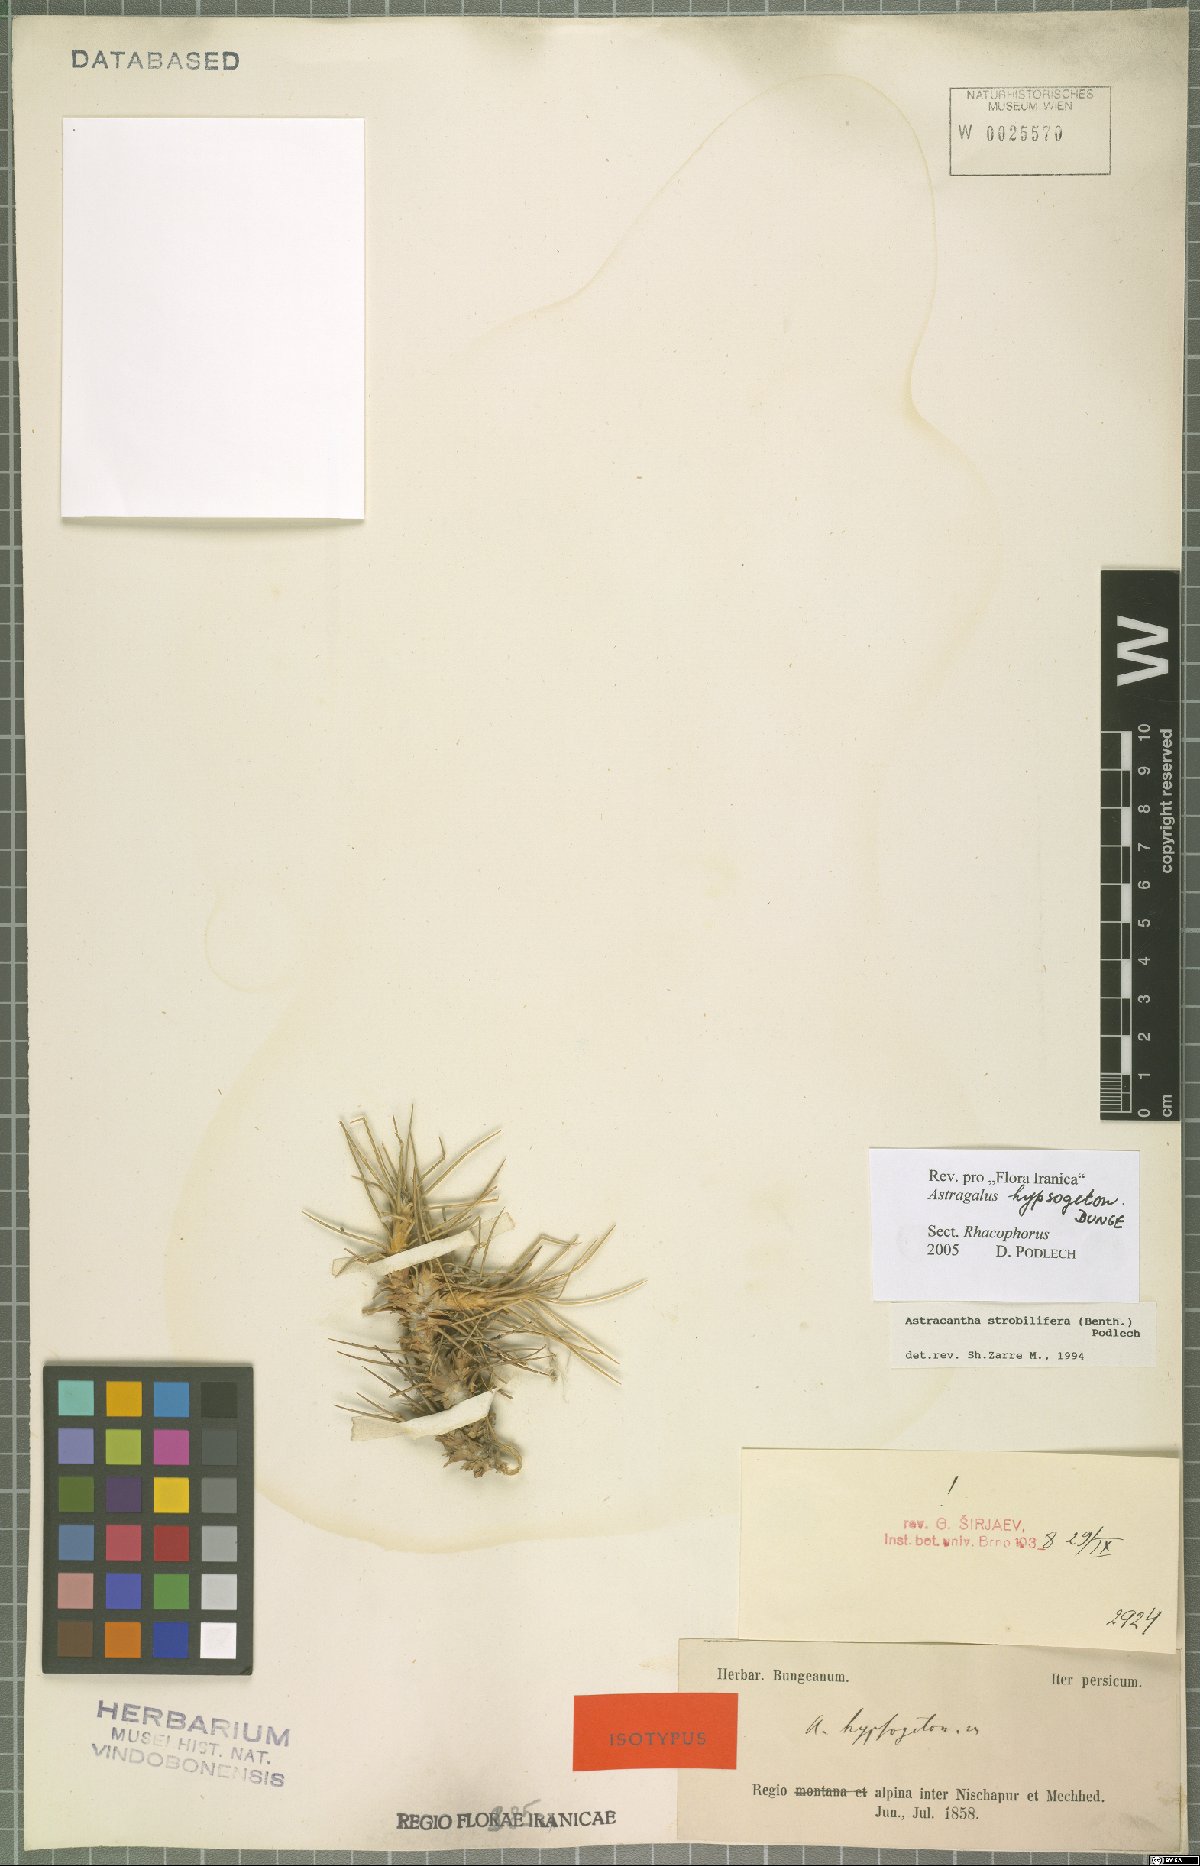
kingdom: Plantae
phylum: Tracheophyta
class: Magnoliopsida
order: Fabales
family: Fabaceae
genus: Astragalus
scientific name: Astragalus hypsogeton
